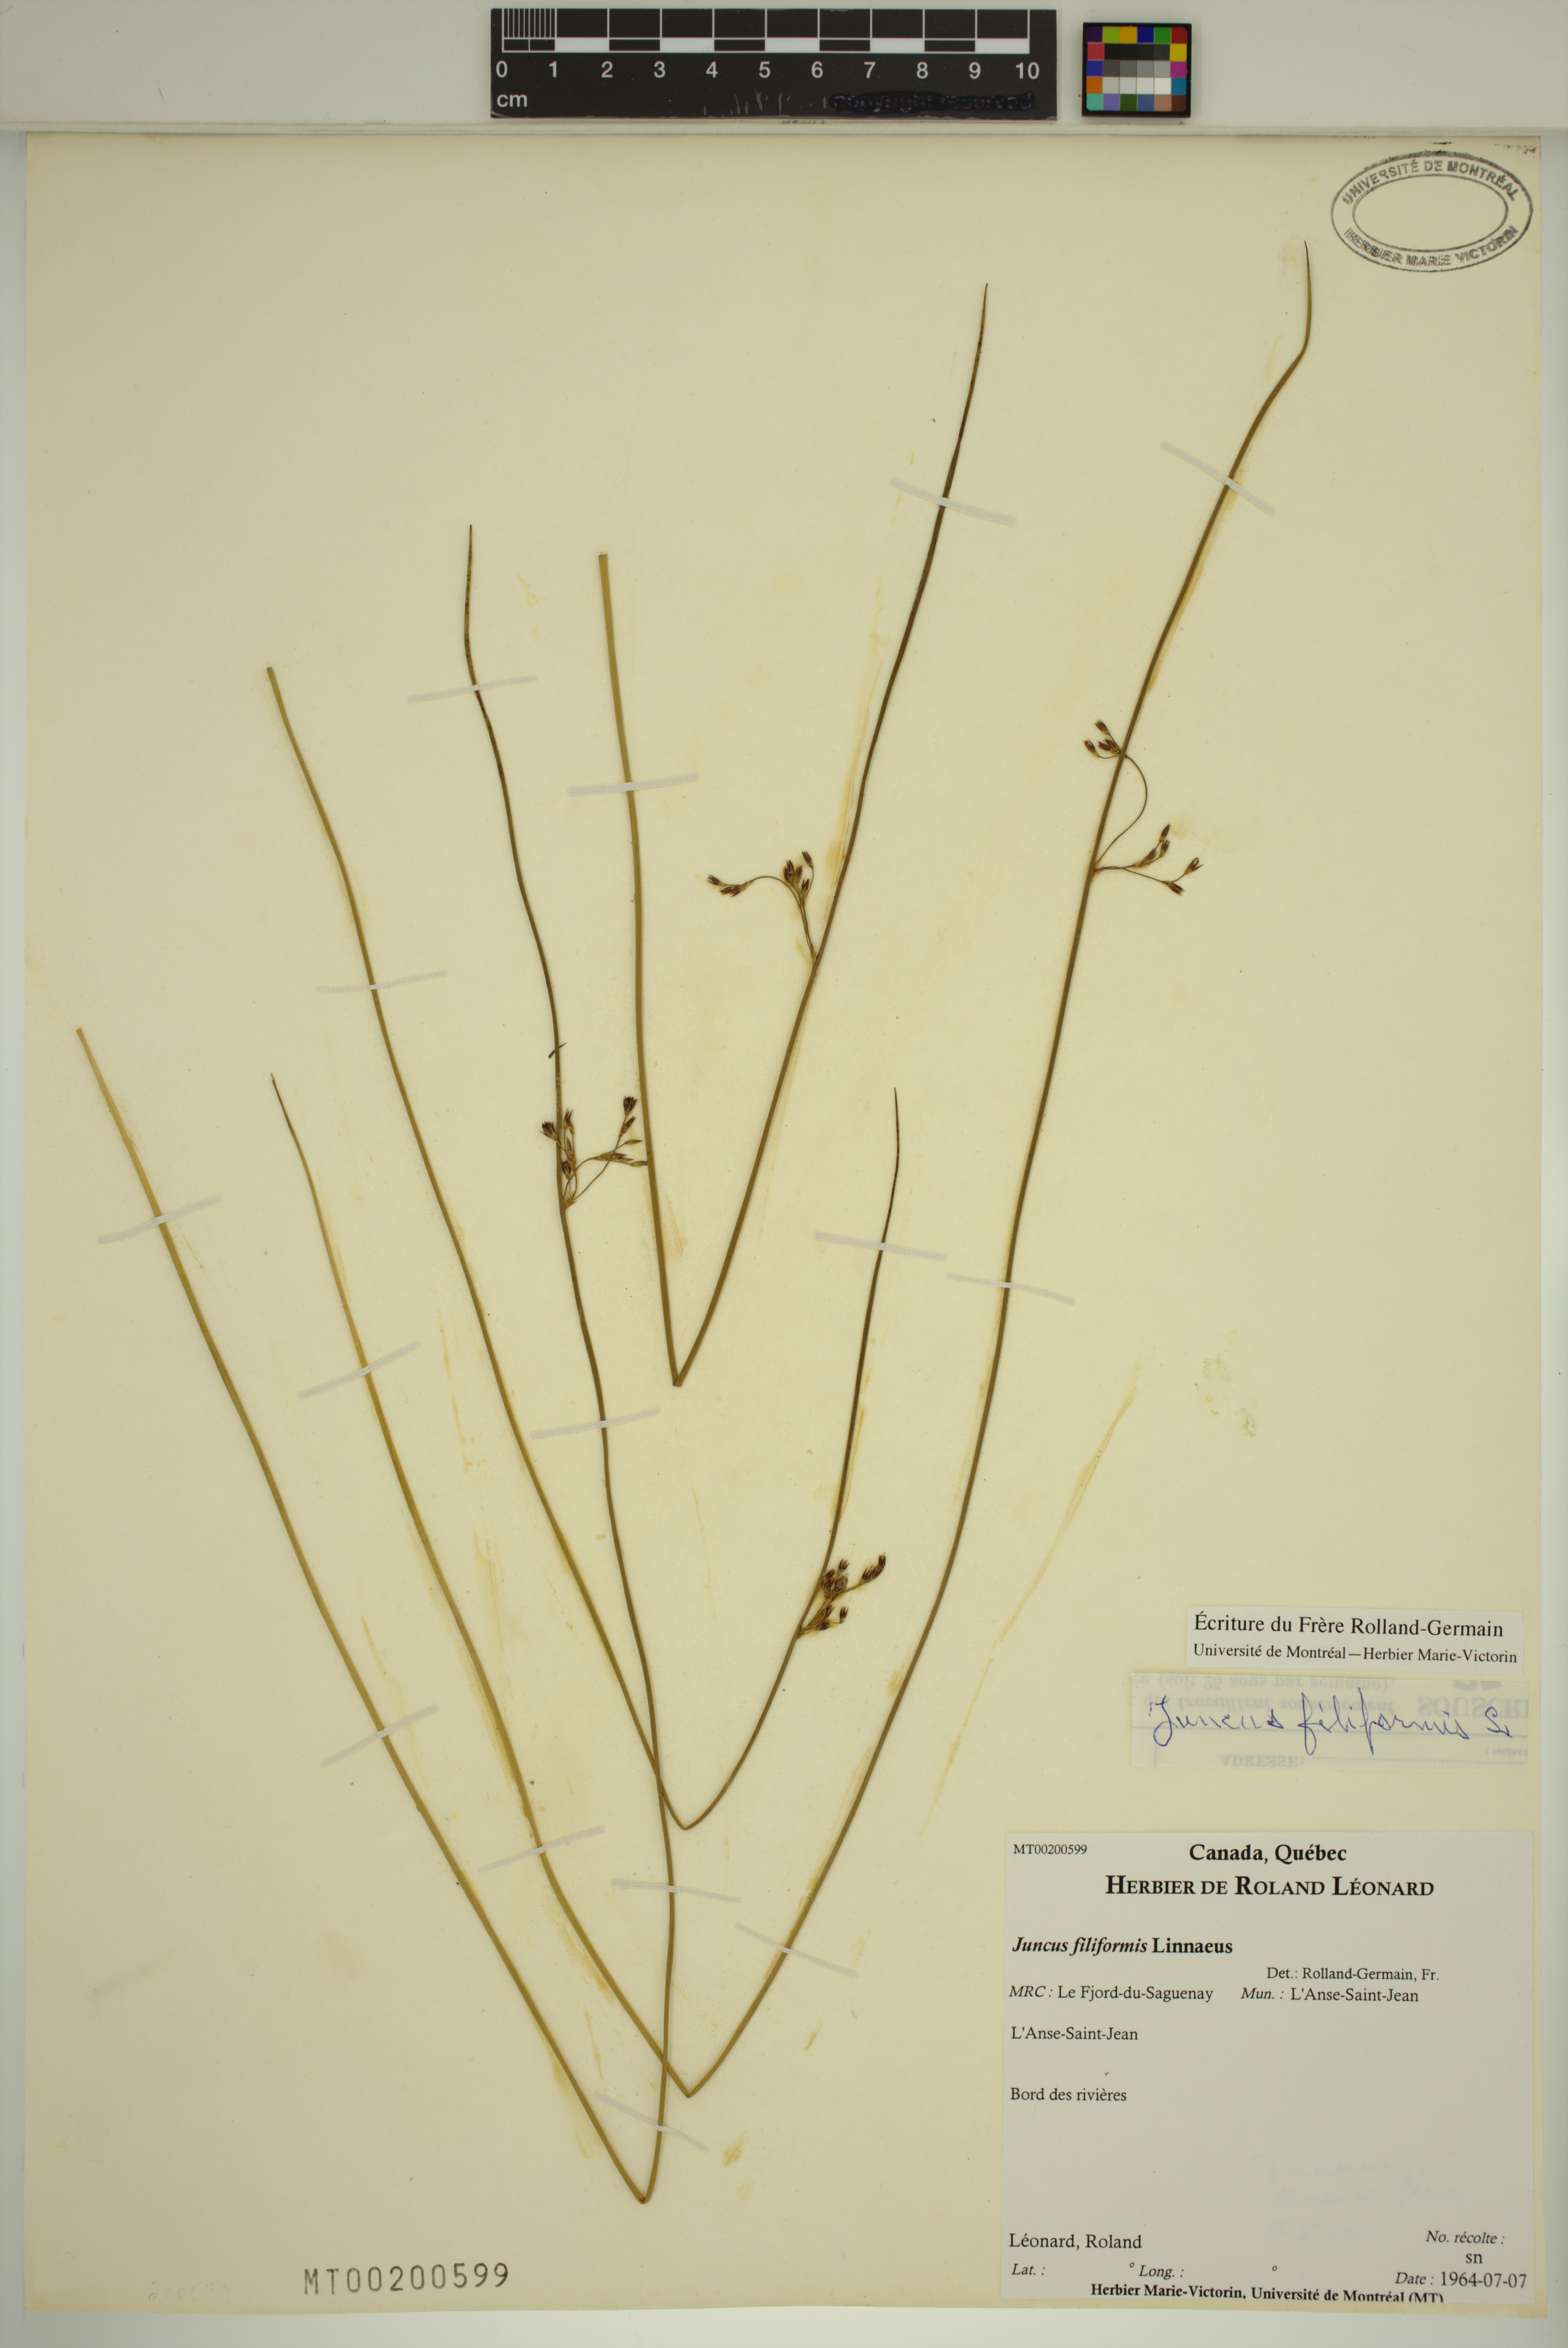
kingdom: Plantae
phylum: Tracheophyta
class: Liliopsida
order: Poales
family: Juncaceae
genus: Juncus
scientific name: Juncus balticus
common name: Baltic rush
